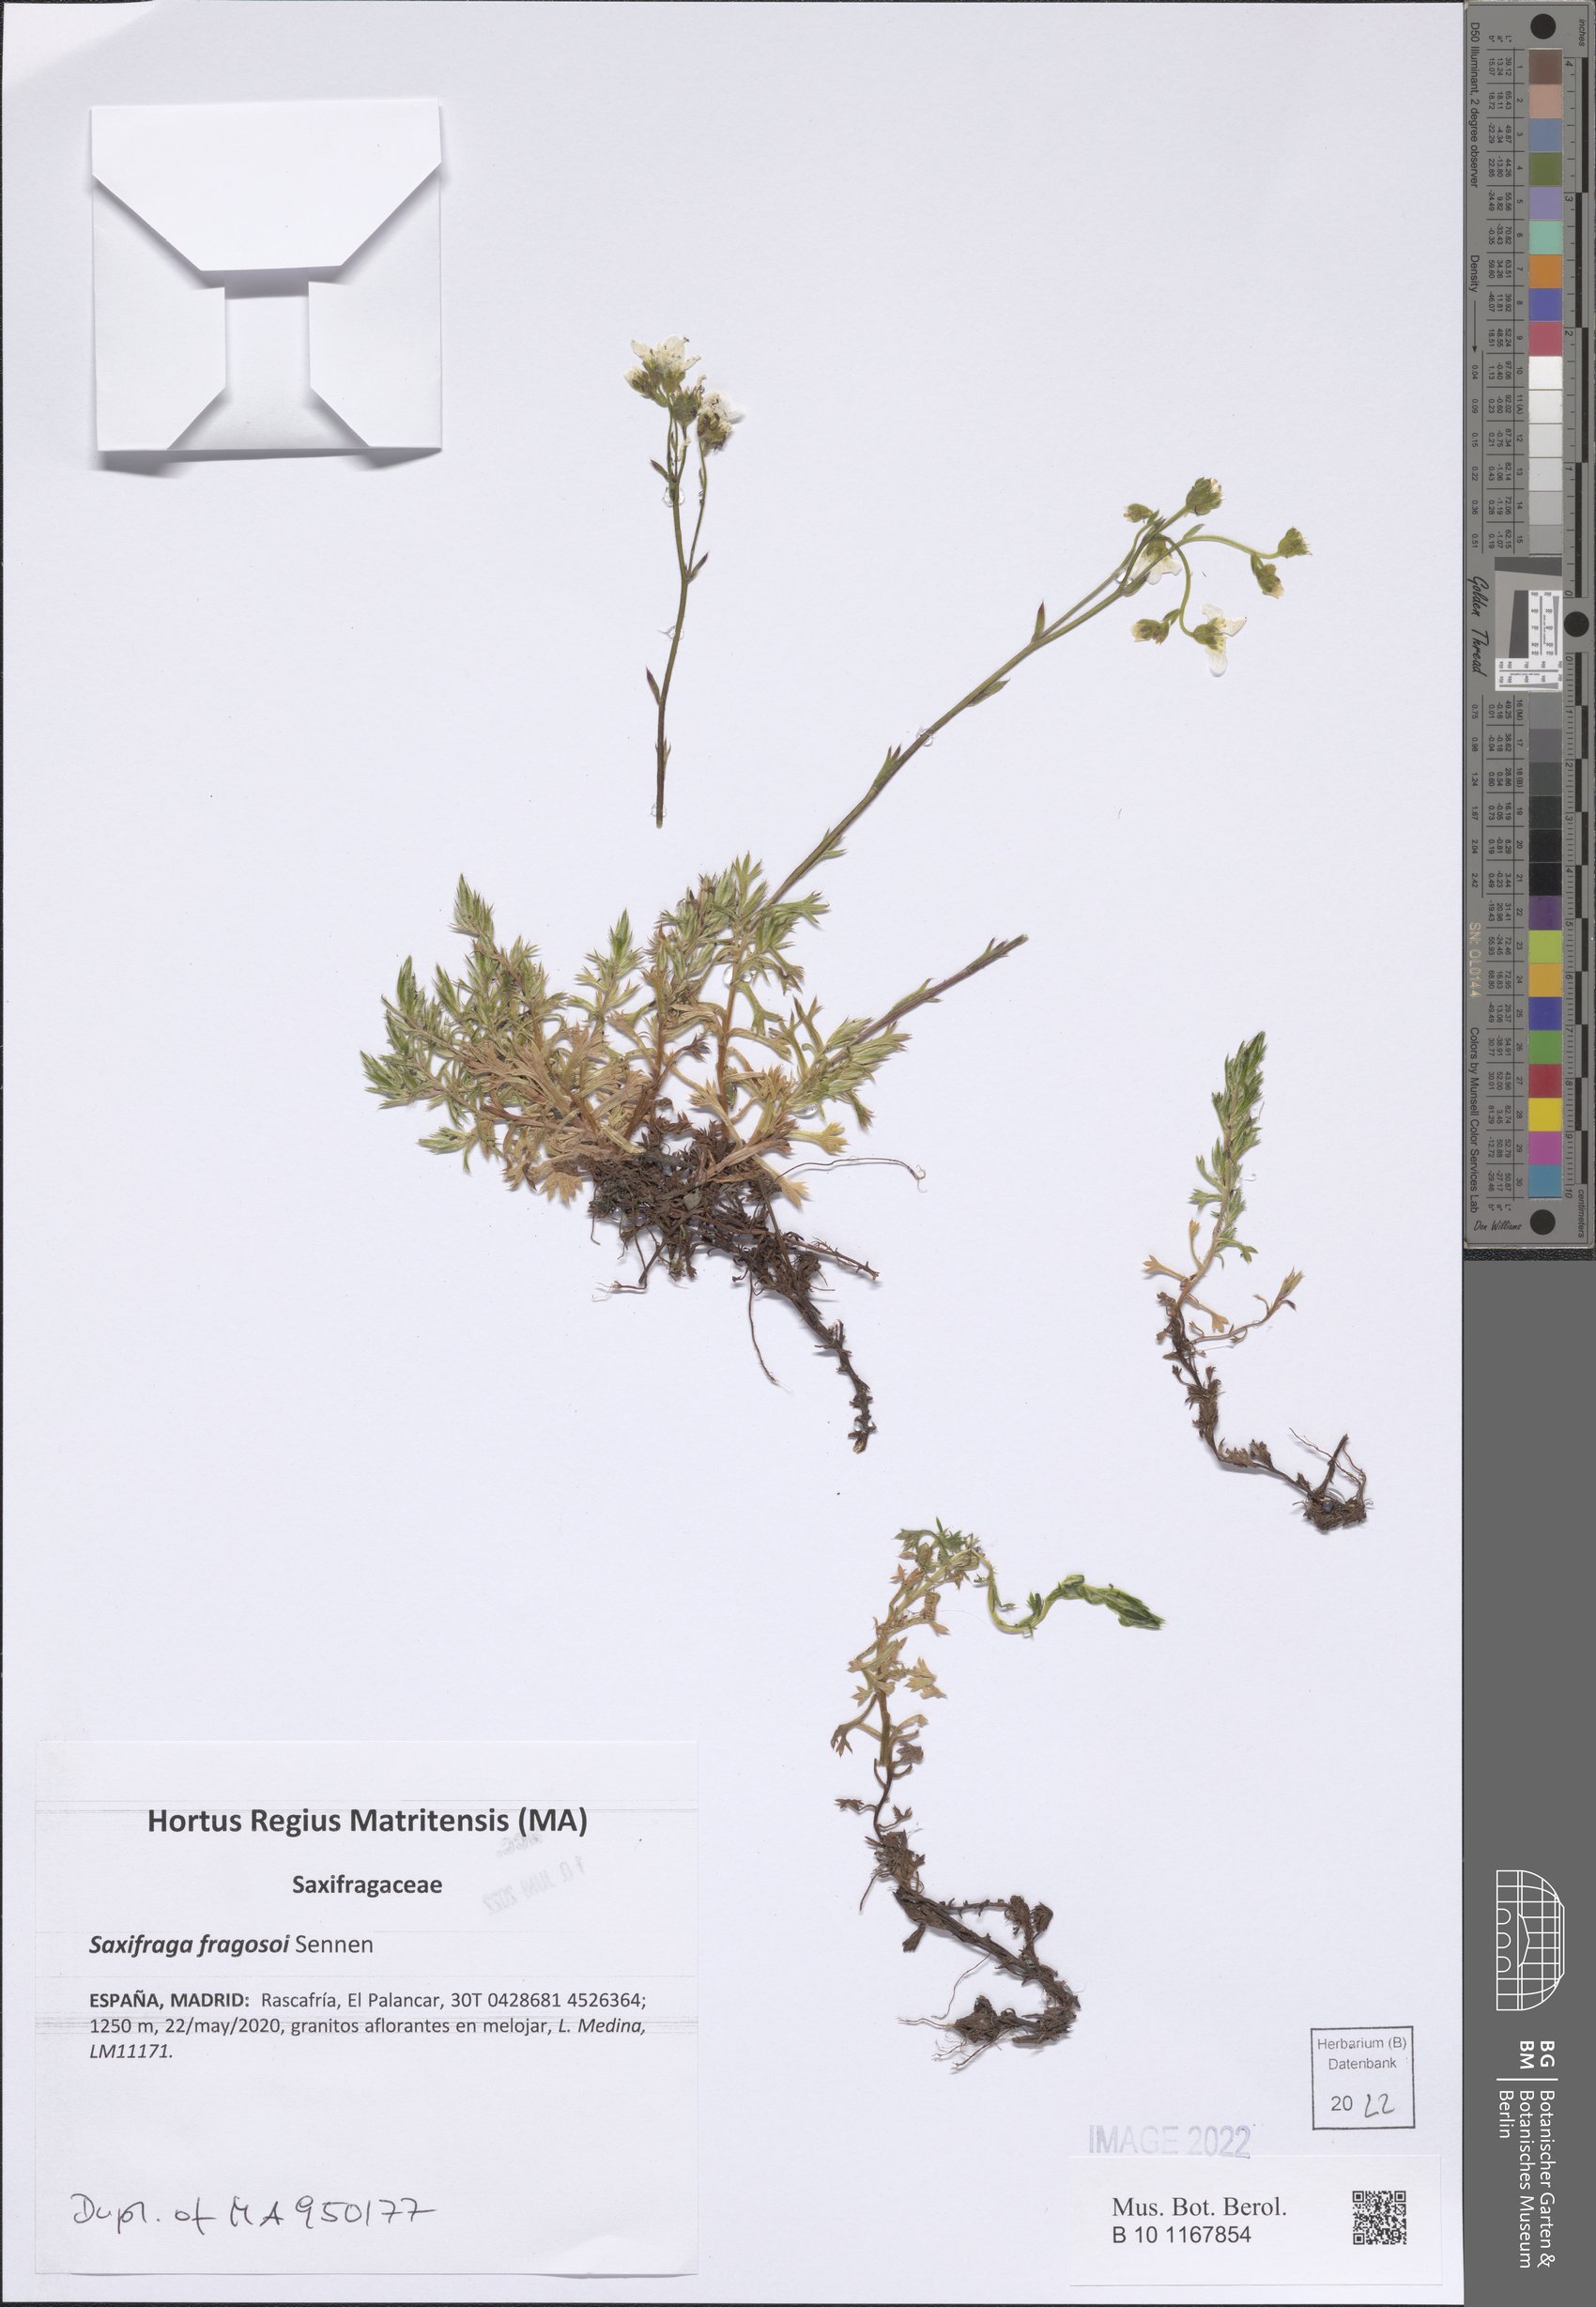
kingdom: Plantae
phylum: Tracheophyta
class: Magnoliopsida
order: Saxifragales
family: Saxifragaceae
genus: Saxifraga
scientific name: Saxifraga fragosoi
